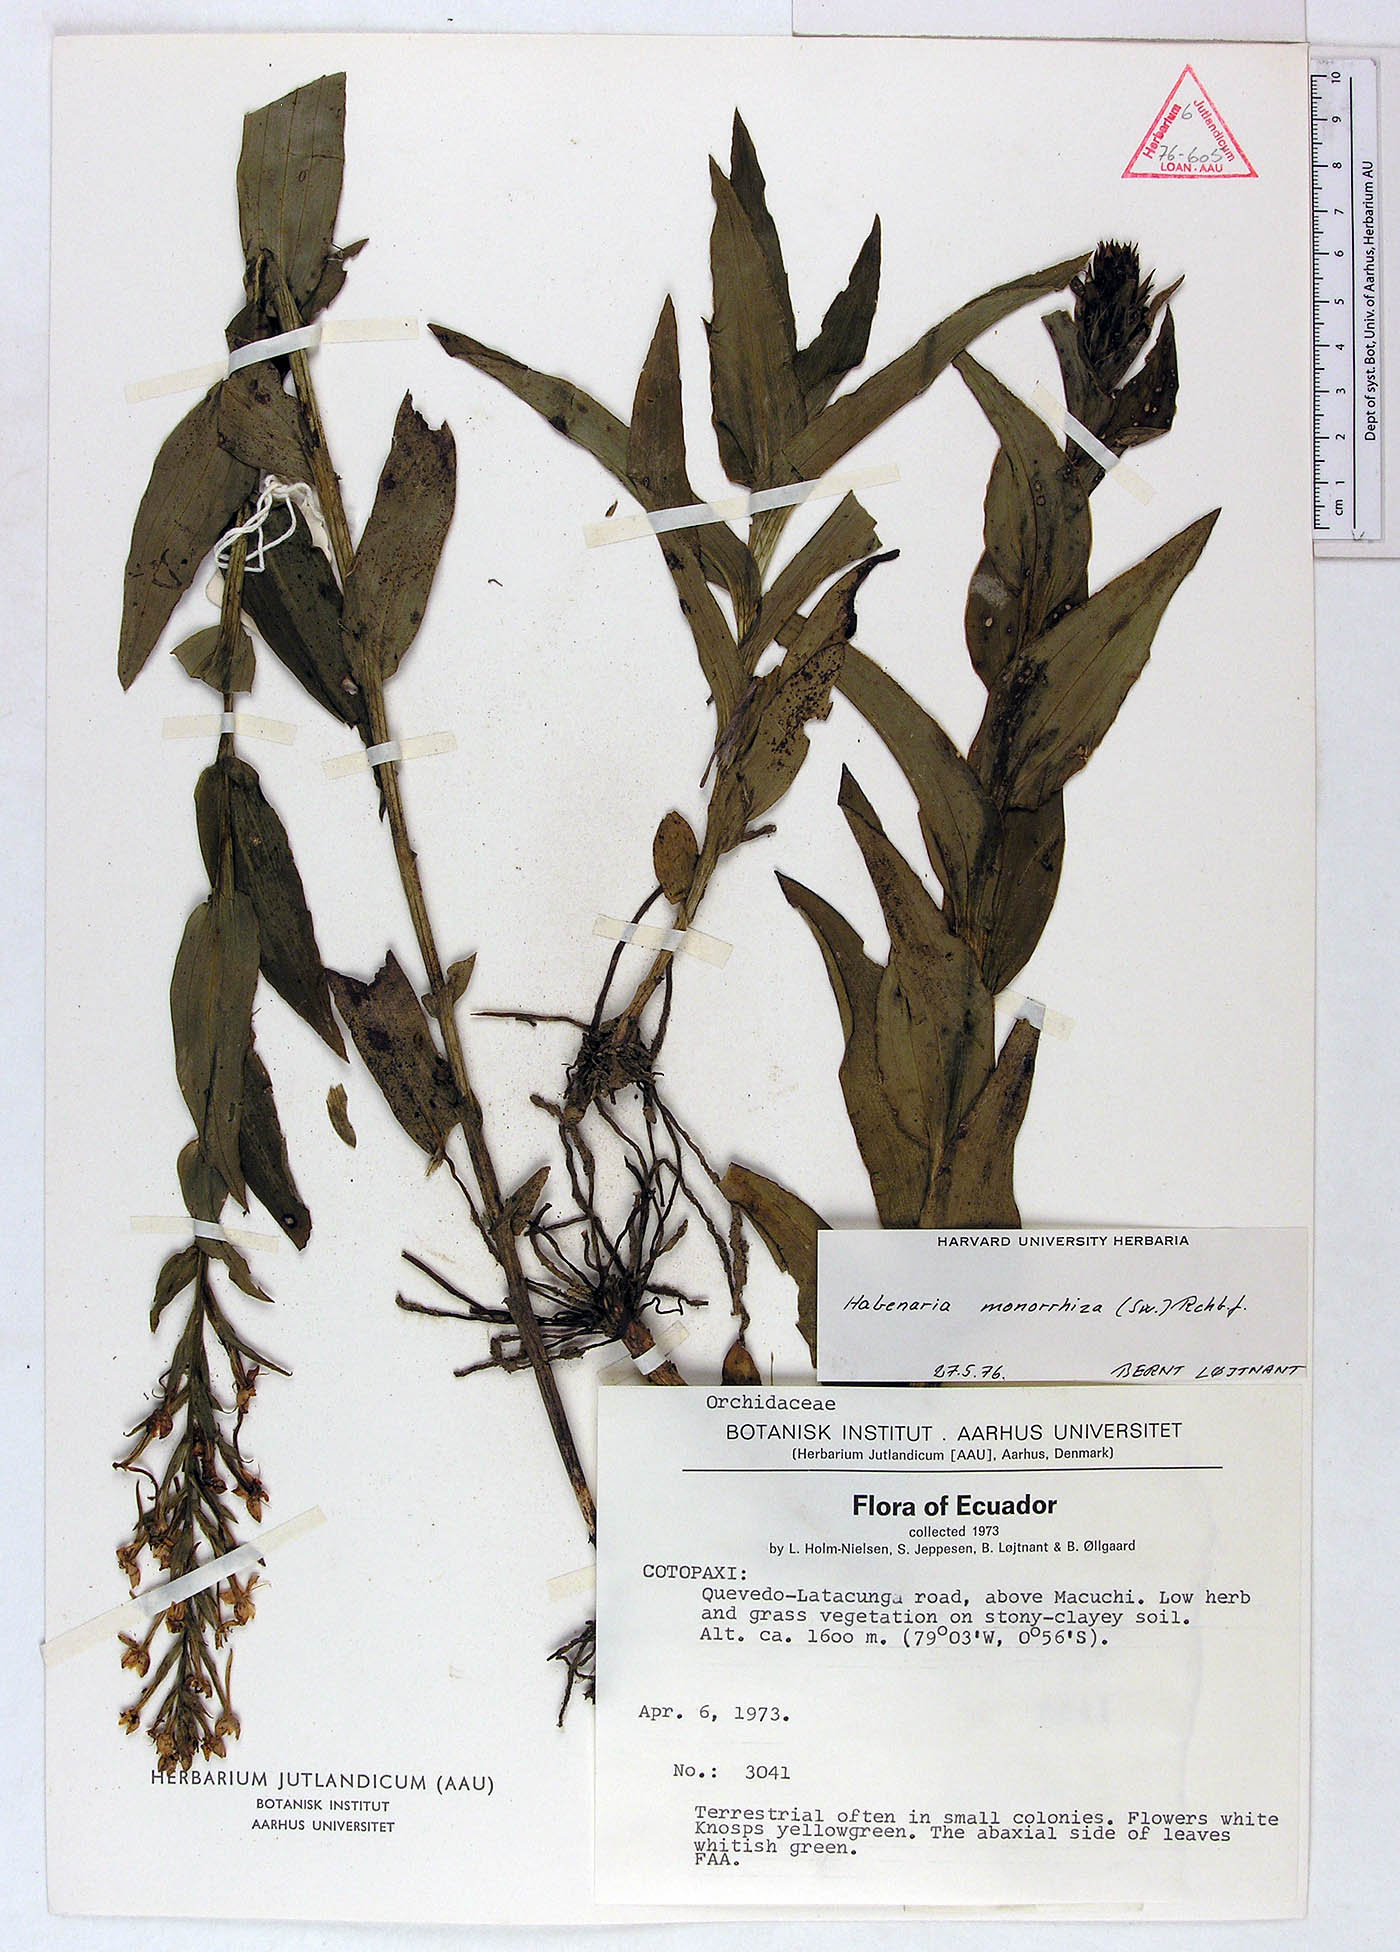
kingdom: Plantae
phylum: Tracheophyta
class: Liliopsida
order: Asparagales
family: Orchidaceae
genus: Habenaria
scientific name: Habenaria monorrhiza
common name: Tropical bog orchid
